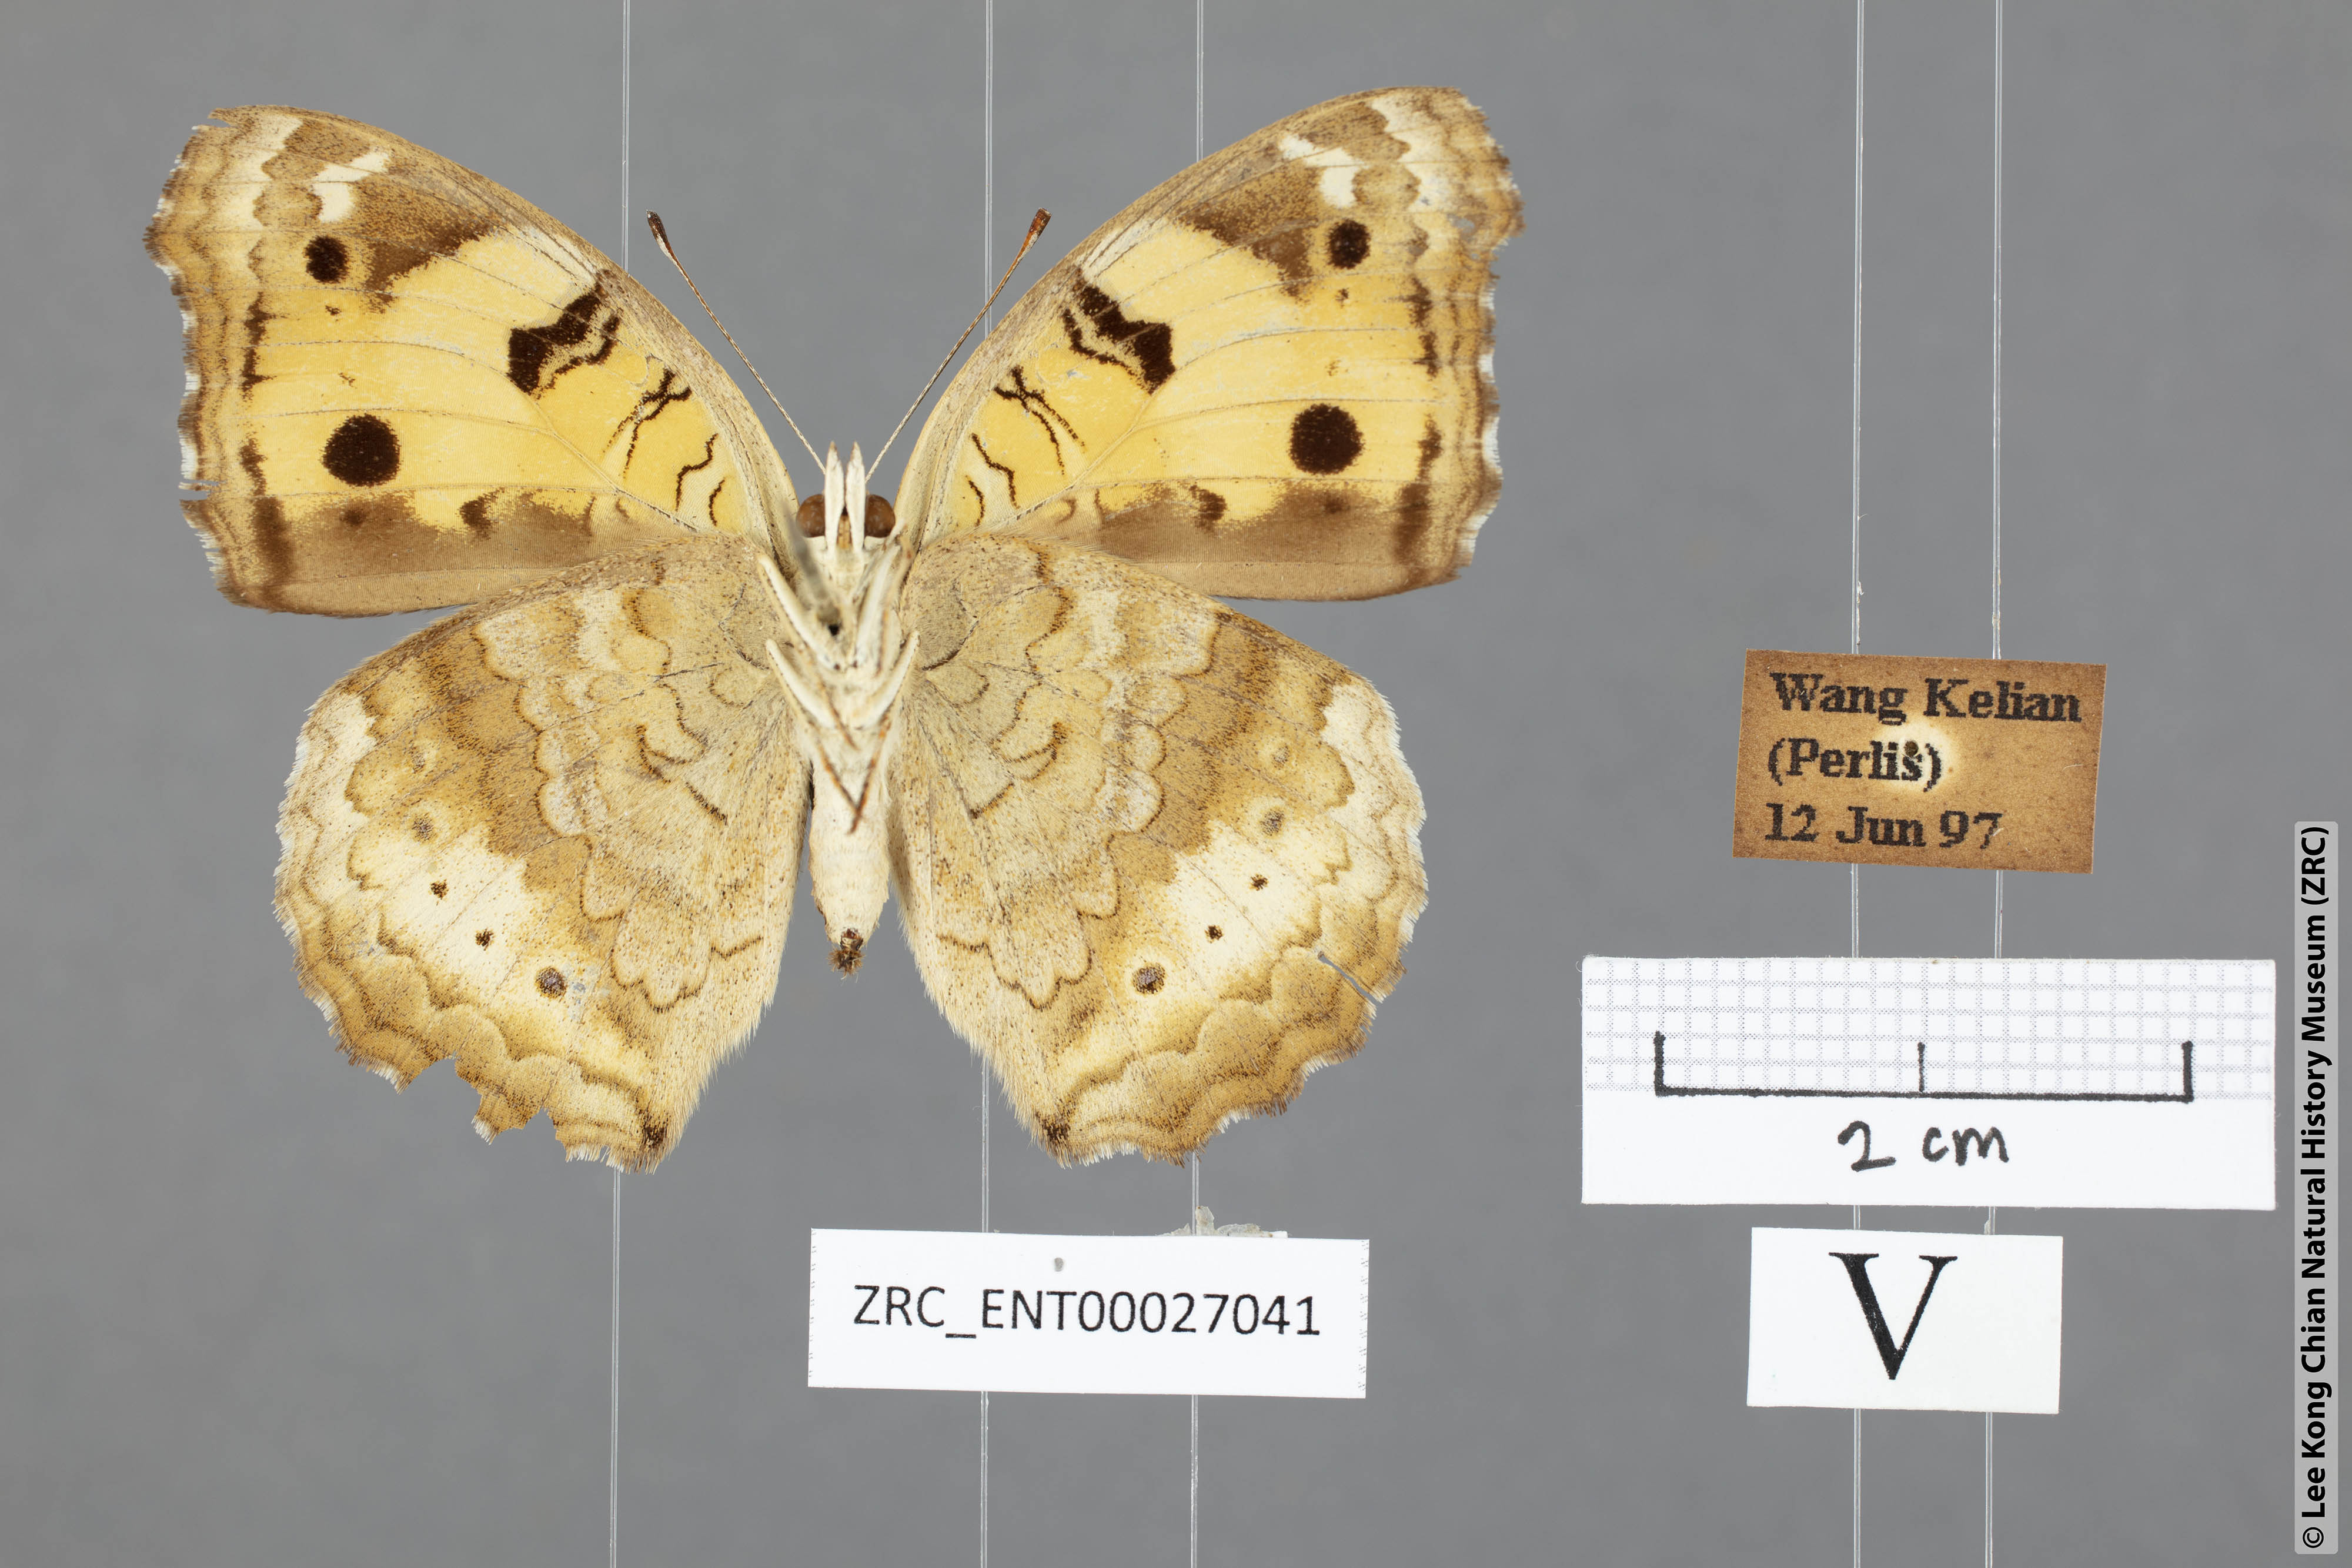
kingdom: Animalia
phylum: Arthropoda
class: Insecta
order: Lepidoptera
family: Nymphalidae
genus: Junonia
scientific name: Junonia hierta
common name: Yellow pansy
